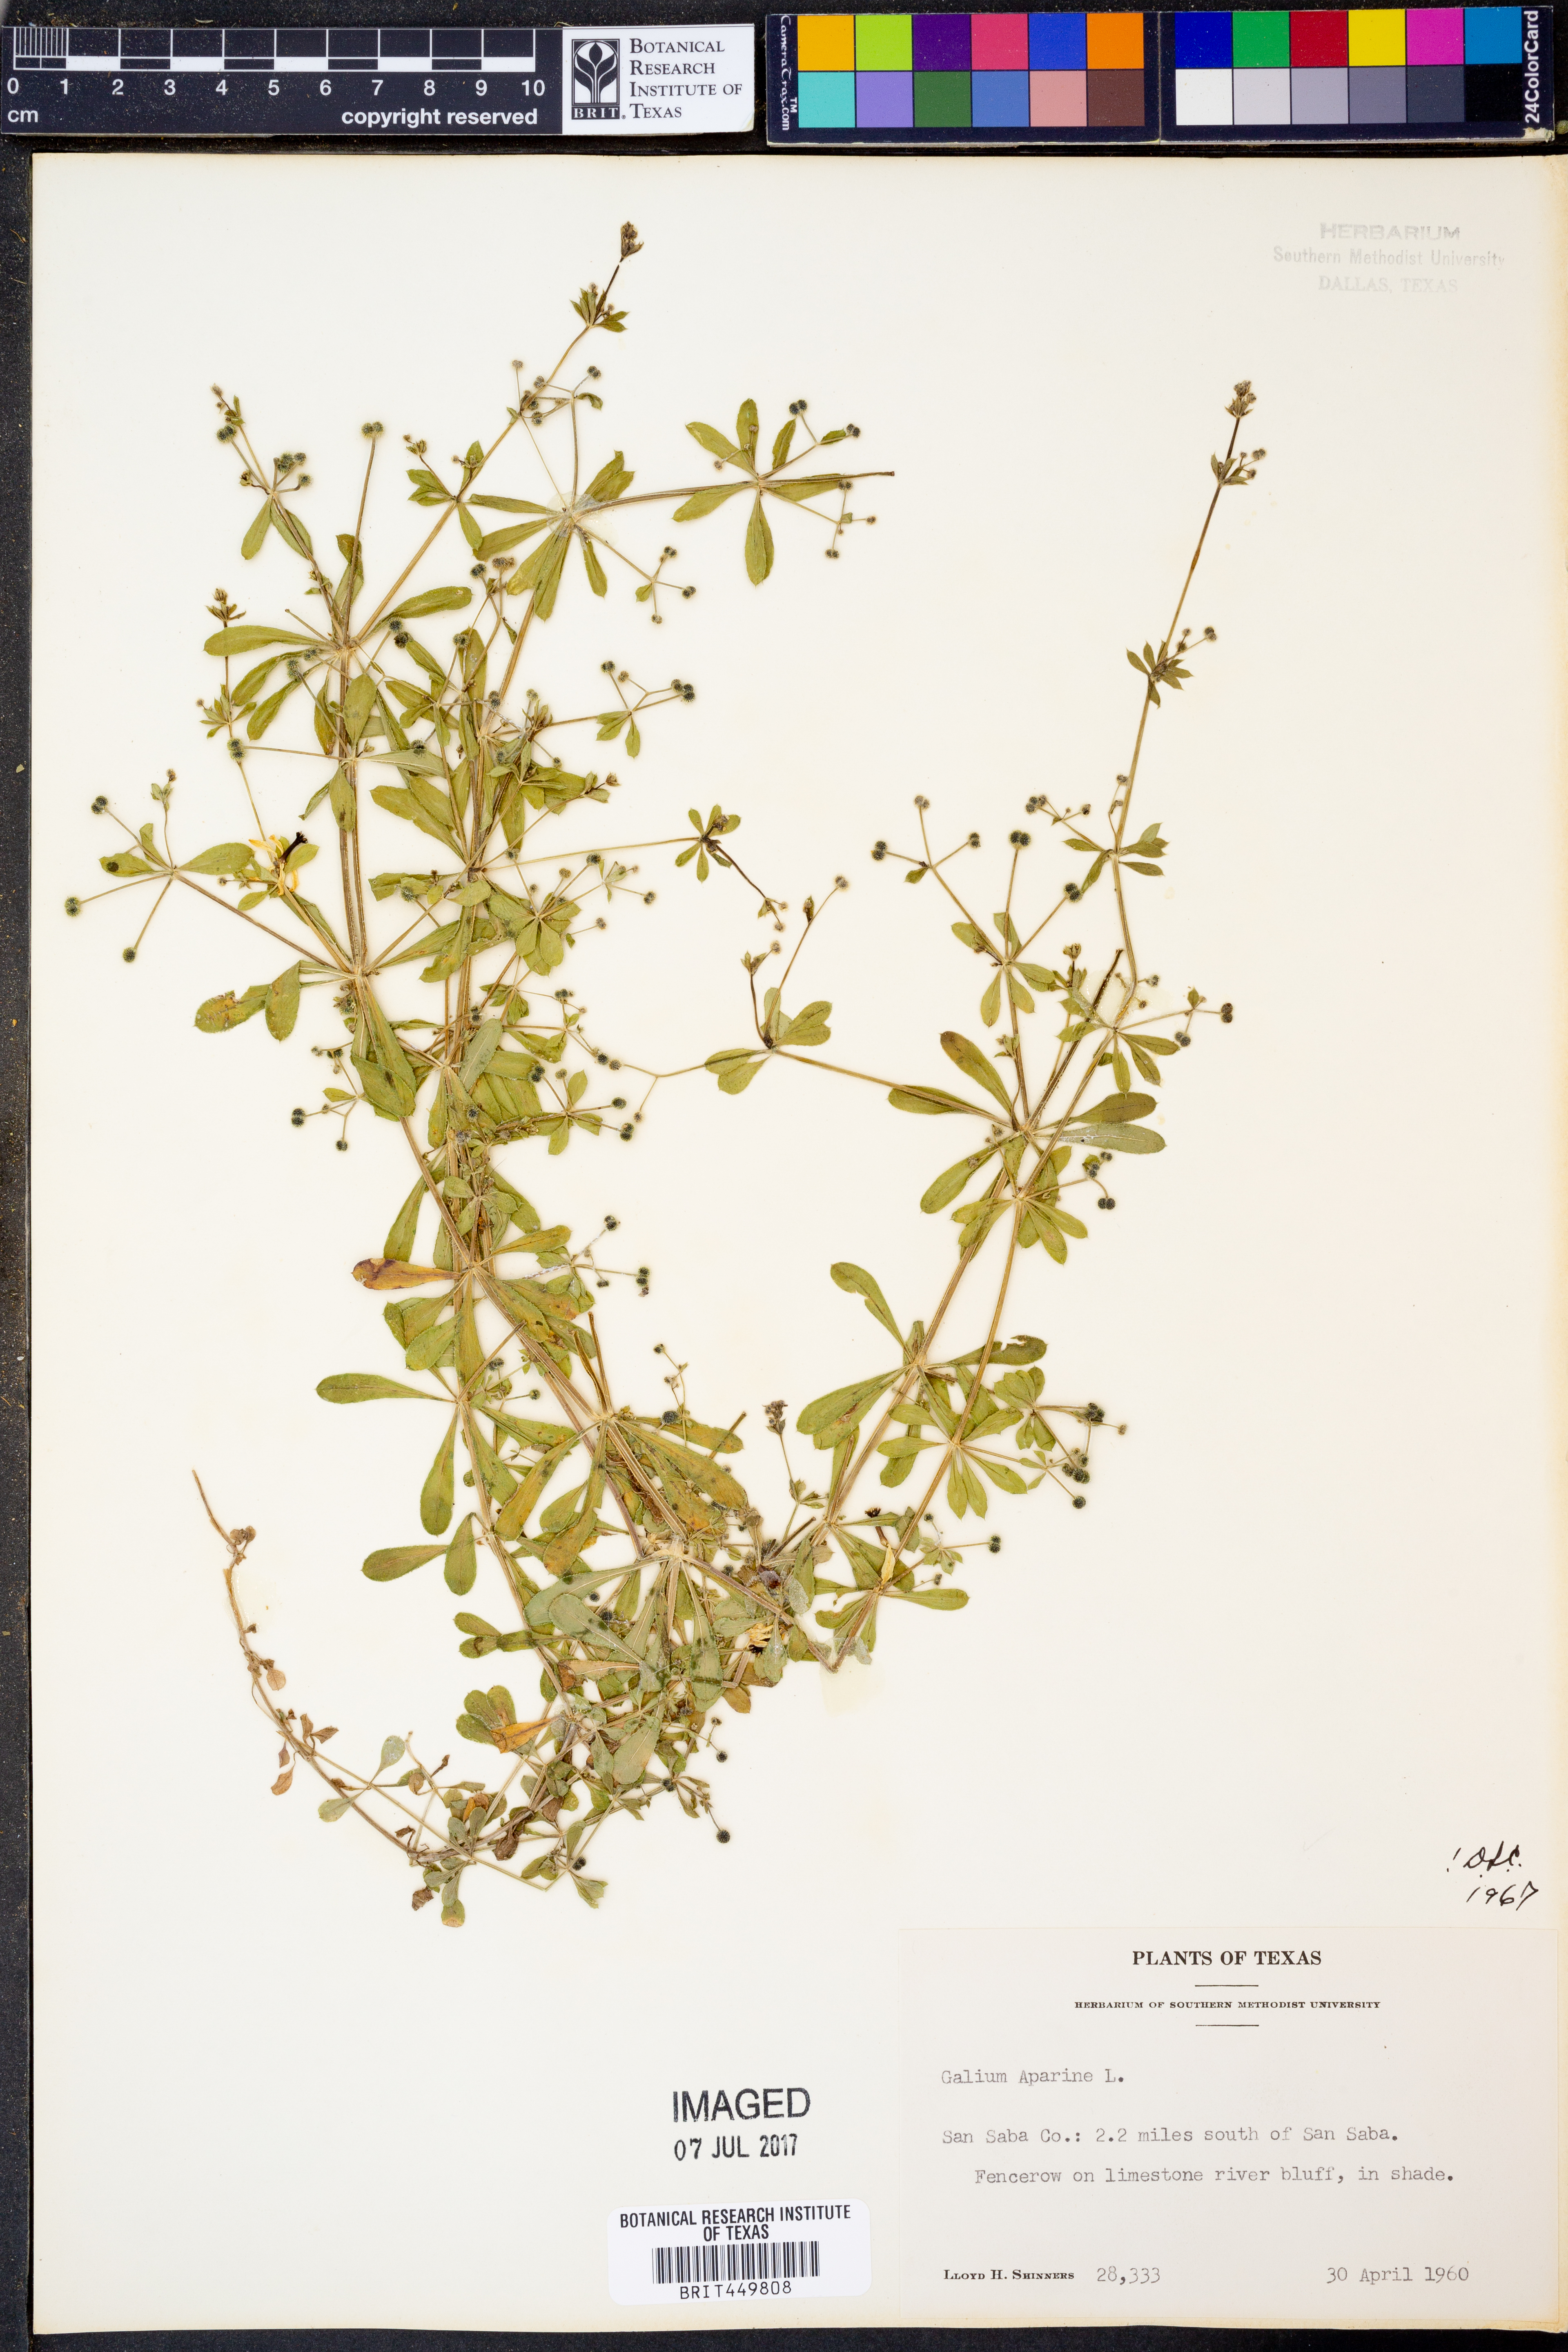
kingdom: Plantae
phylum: Tracheophyta
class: Magnoliopsida
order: Gentianales
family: Rubiaceae
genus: Galium
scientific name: Galium aparine
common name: Cleavers
